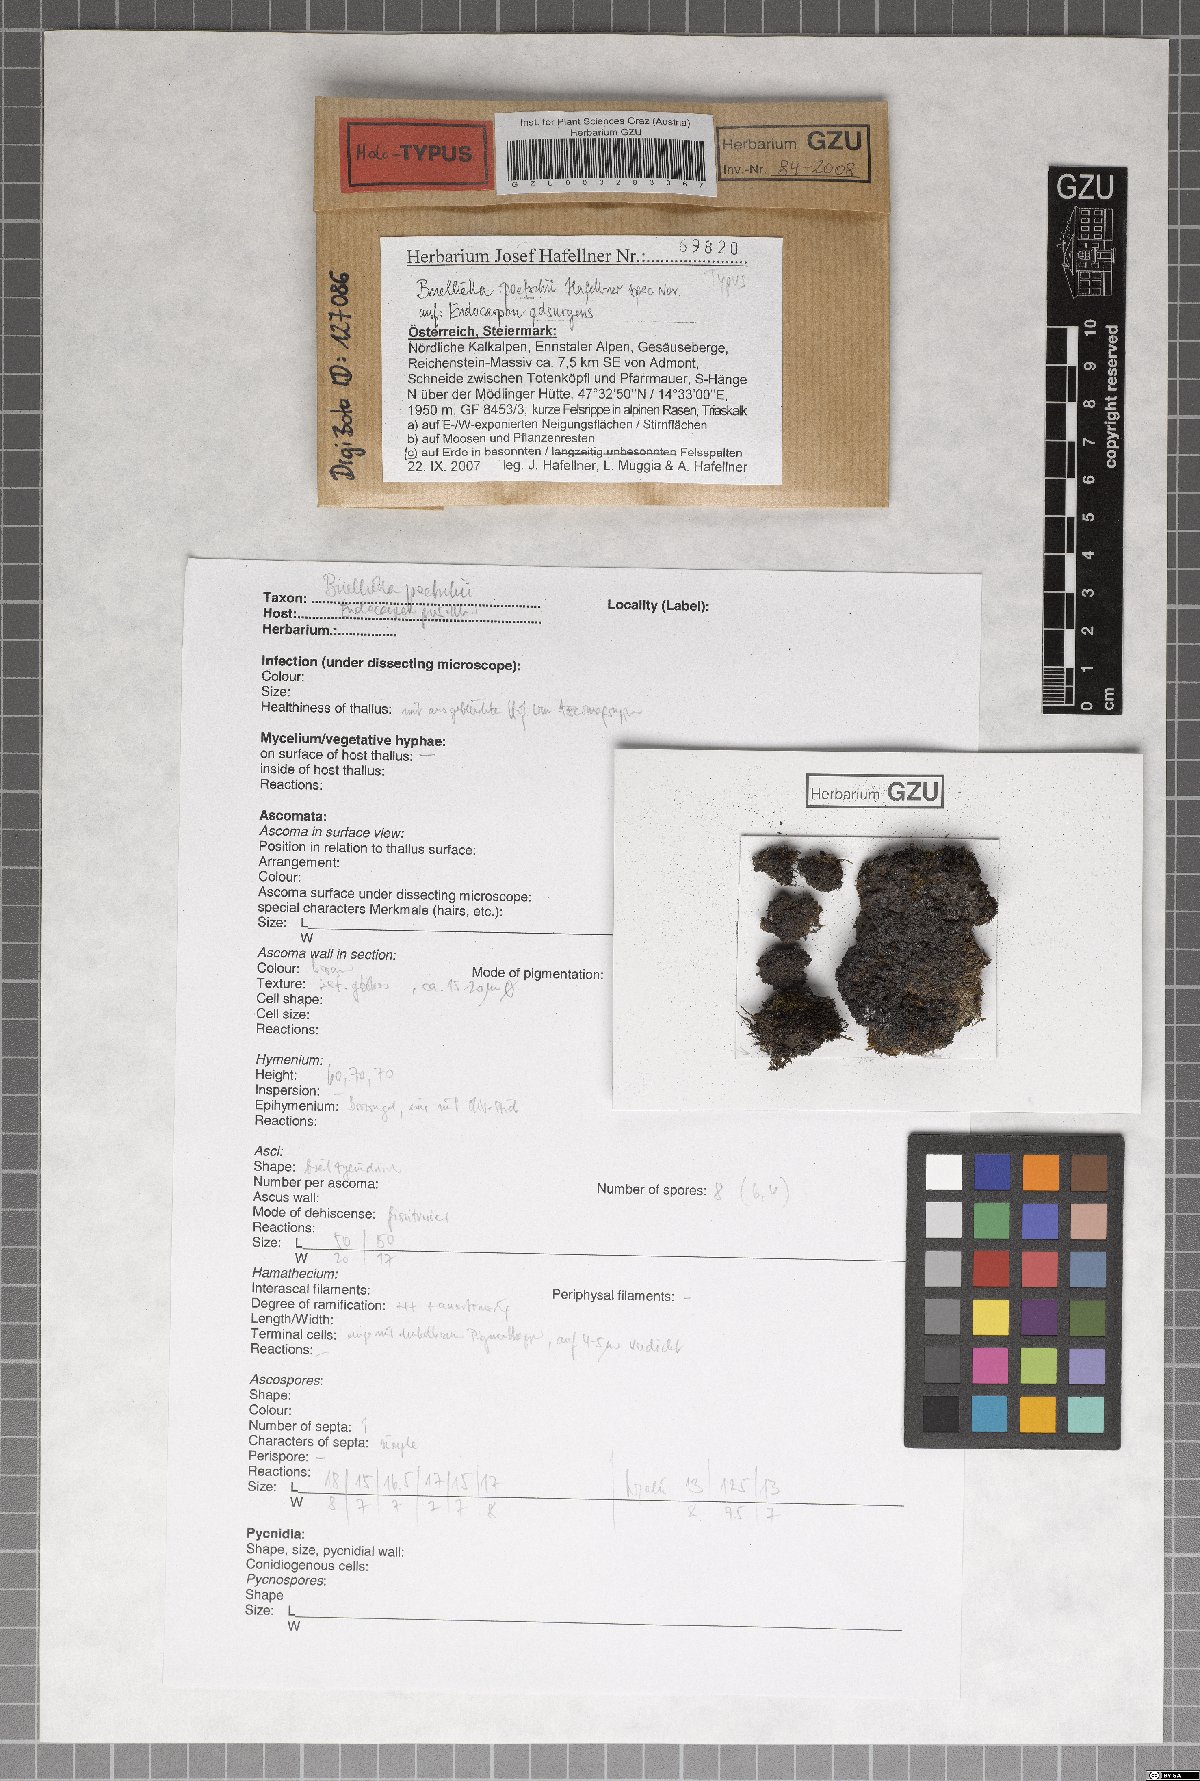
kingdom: Fungi
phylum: Ascomycota
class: Dothideomycetes
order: Asterinales
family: Neobuelliellaceae
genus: Neobuelliella
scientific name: Neobuelliella poetschii
